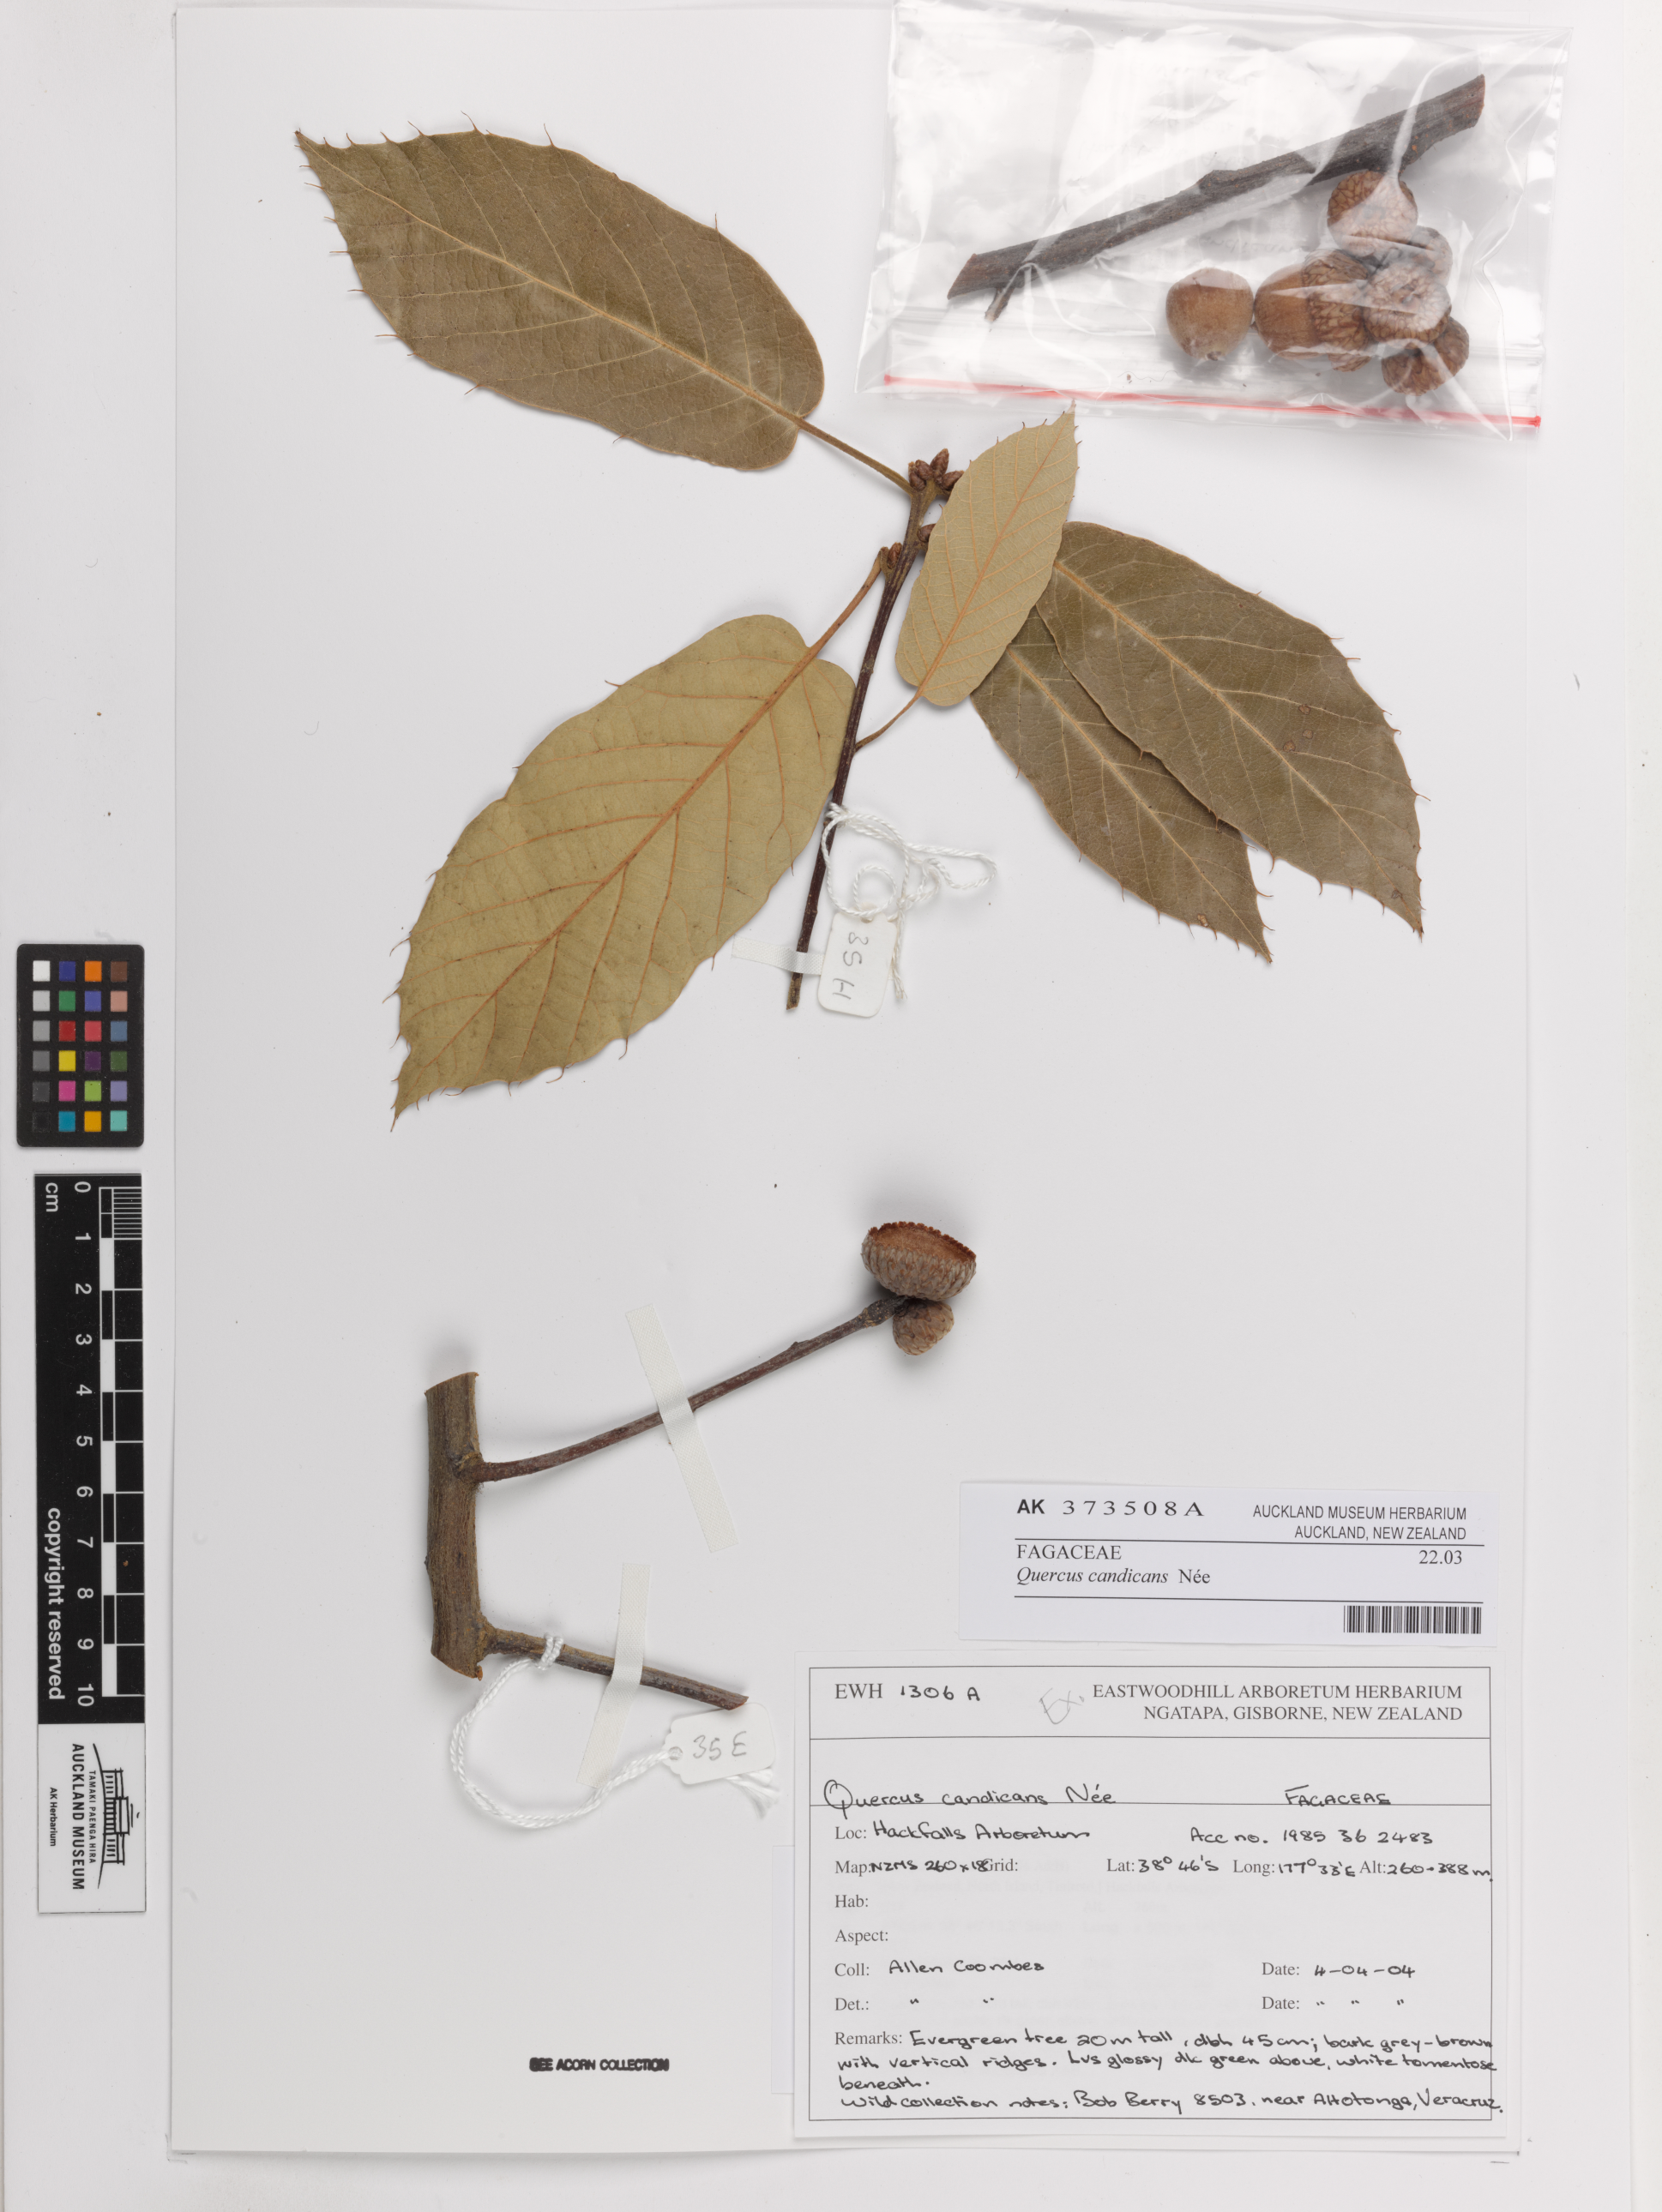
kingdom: Plantae
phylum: Tracheophyta
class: Magnoliopsida
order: Fagales
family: Fagaceae
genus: Quercus
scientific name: Quercus caudicans
